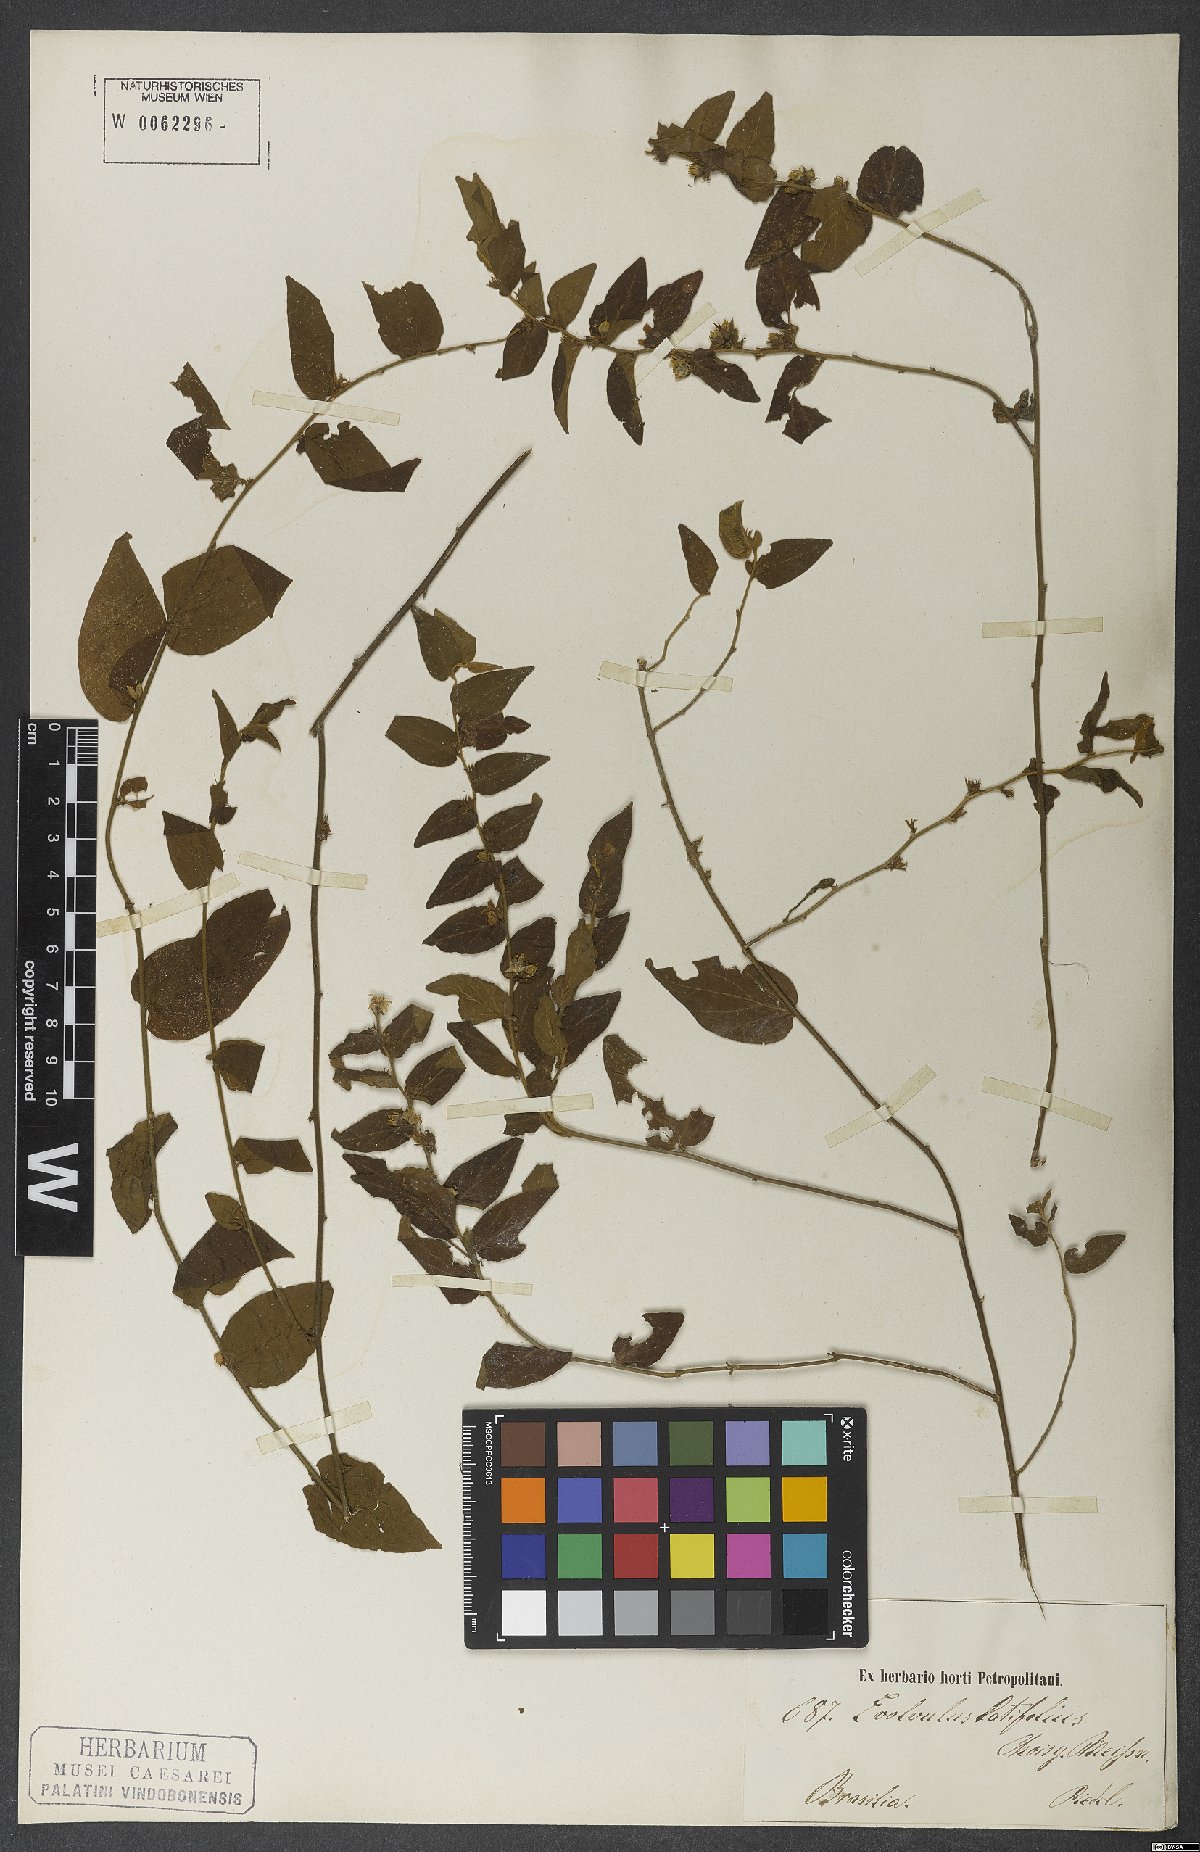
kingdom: Plantae
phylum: Tracheophyta
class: Magnoliopsida
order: Solanales
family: Convolvulaceae
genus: Evolvulus
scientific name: Evolvulus latifolius
